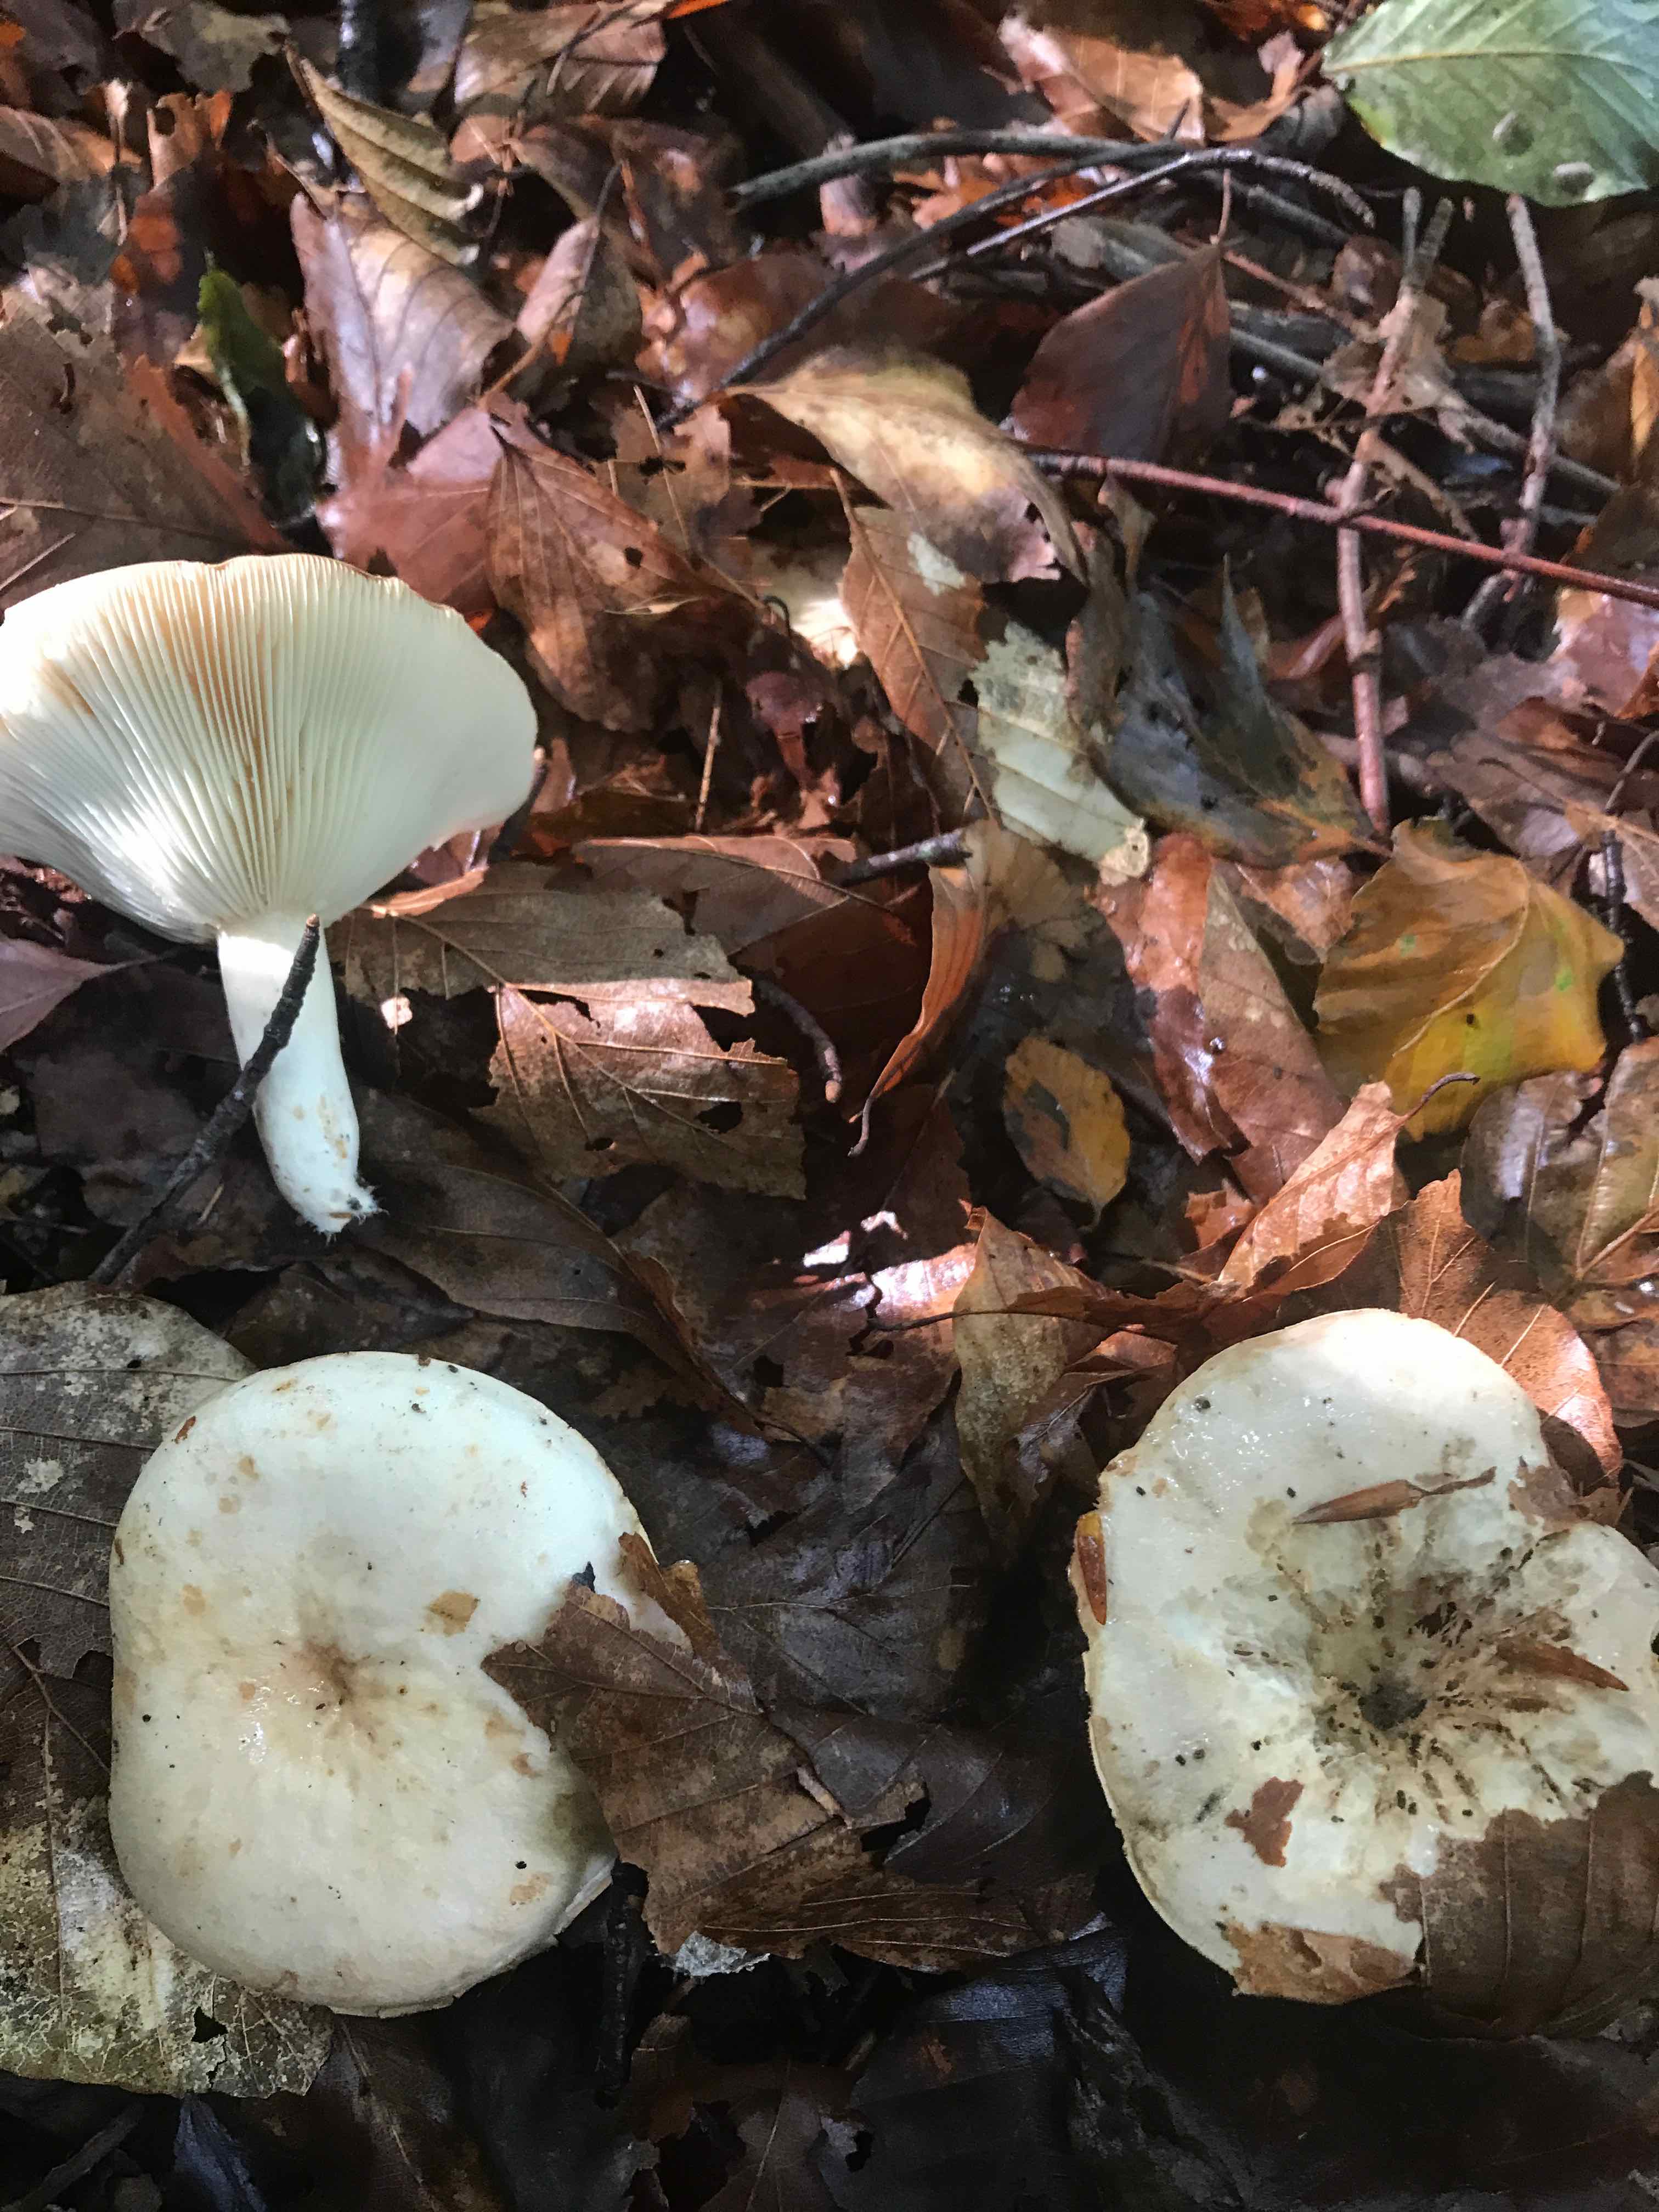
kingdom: Fungi
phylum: Basidiomycota
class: Agaricomycetes
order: Russulales
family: Russulaceae
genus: Lactarius
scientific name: Lactarius
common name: mælkehat
